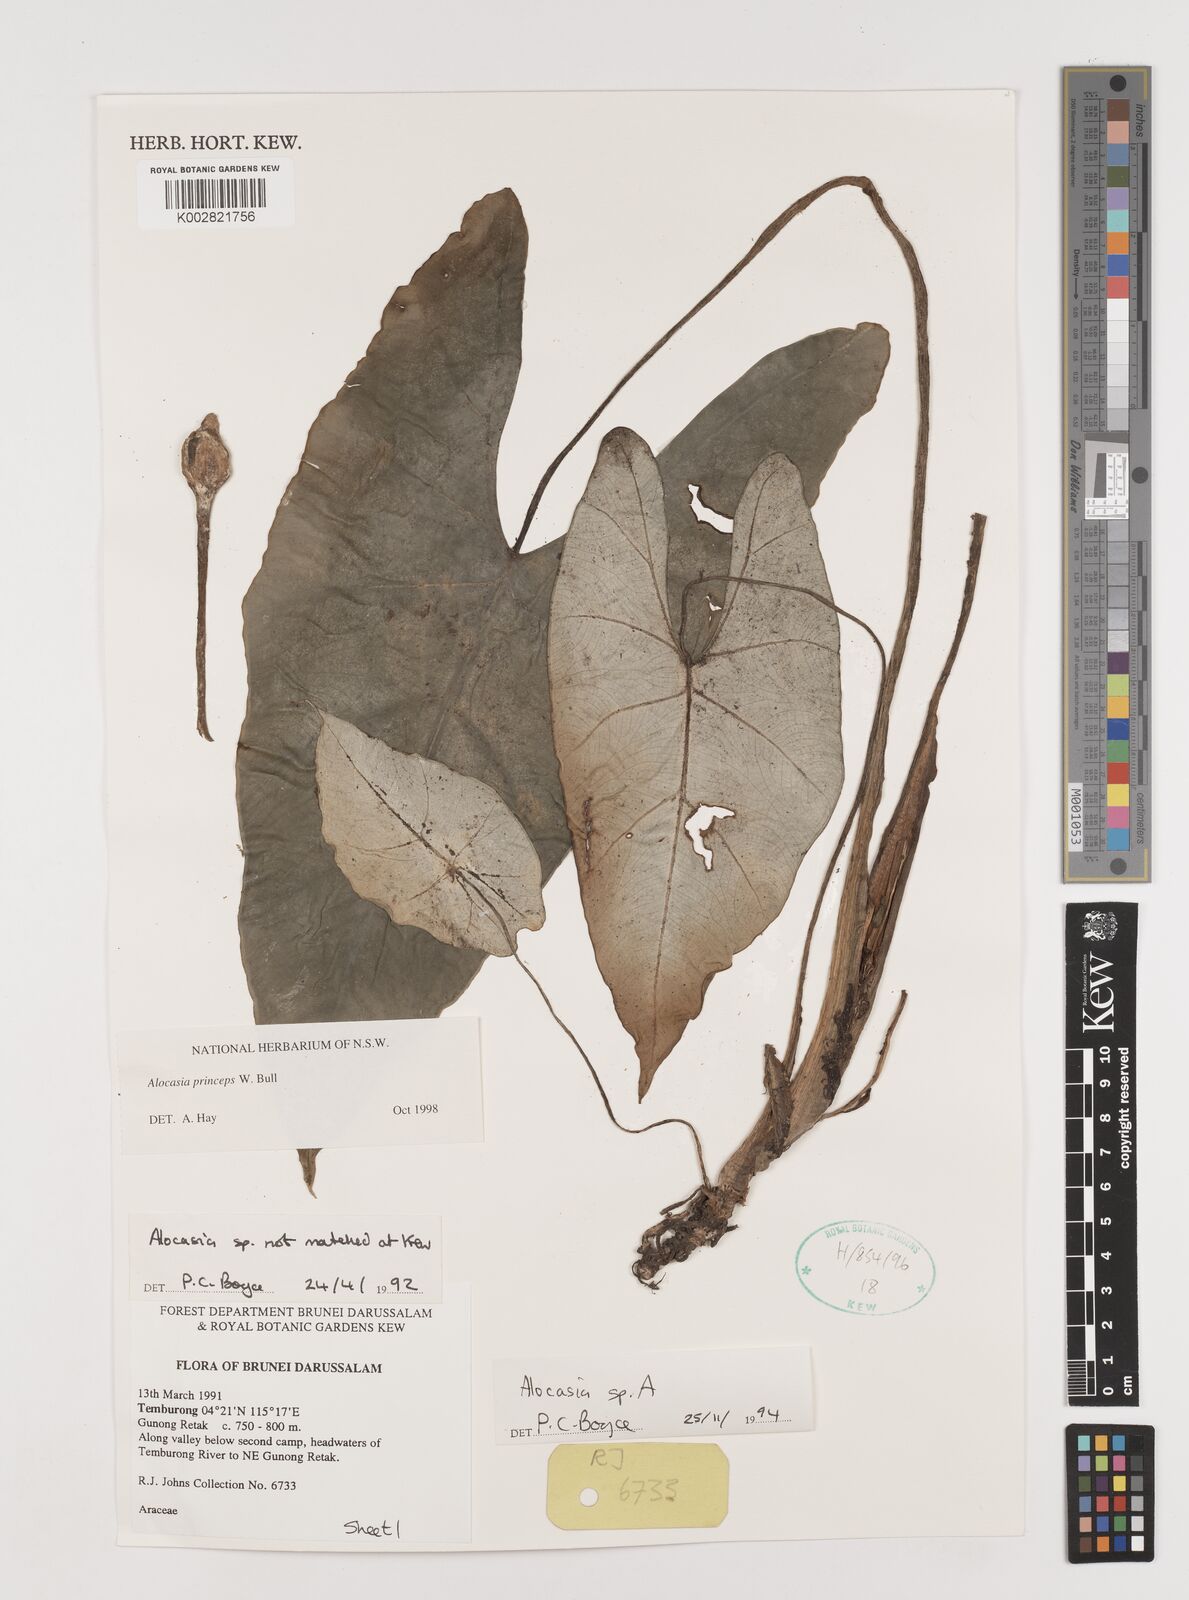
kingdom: Plantae
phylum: Tracheophyta
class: Liliopsida
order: Alismatales
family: Araceae
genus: Alocasia
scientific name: Alocasia princeps
